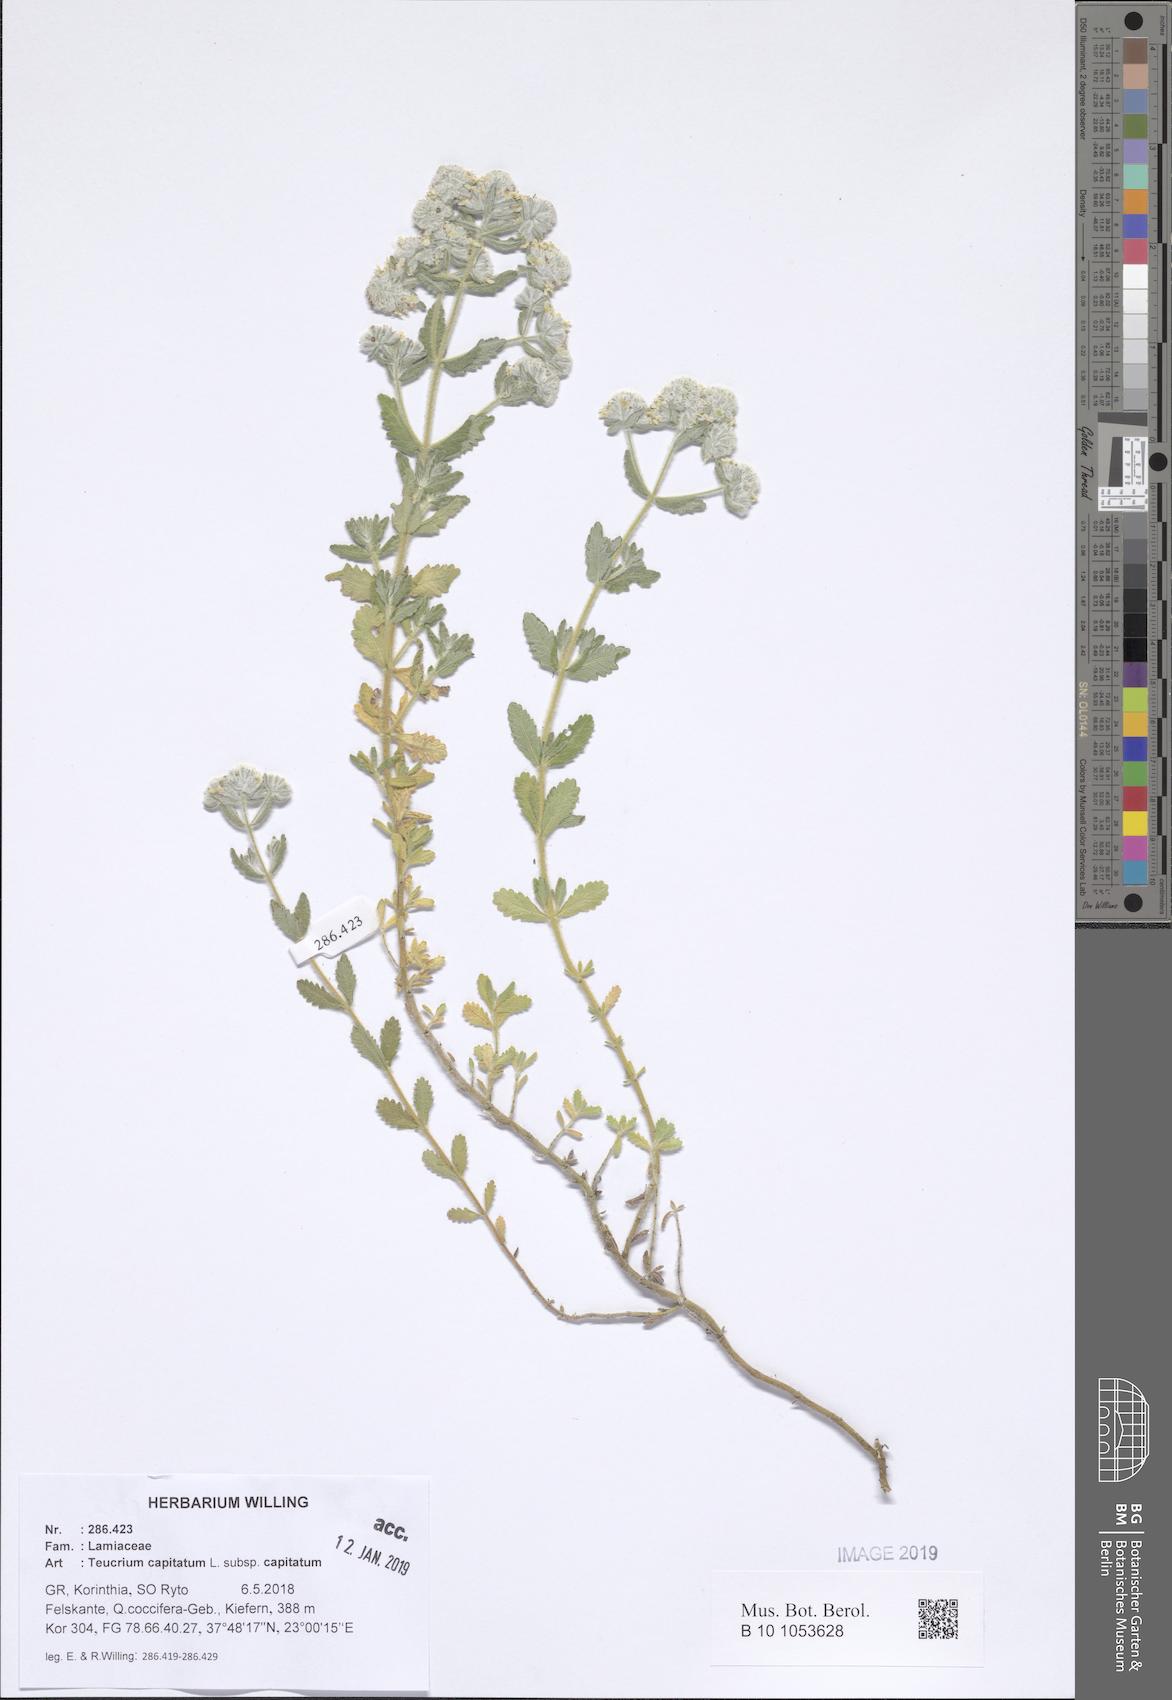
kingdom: Plantae
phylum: Tracheophyta
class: Magnoliopsida
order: Lamiales
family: Lamiaceae
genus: Teucrium
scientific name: Teucrium capitatum
